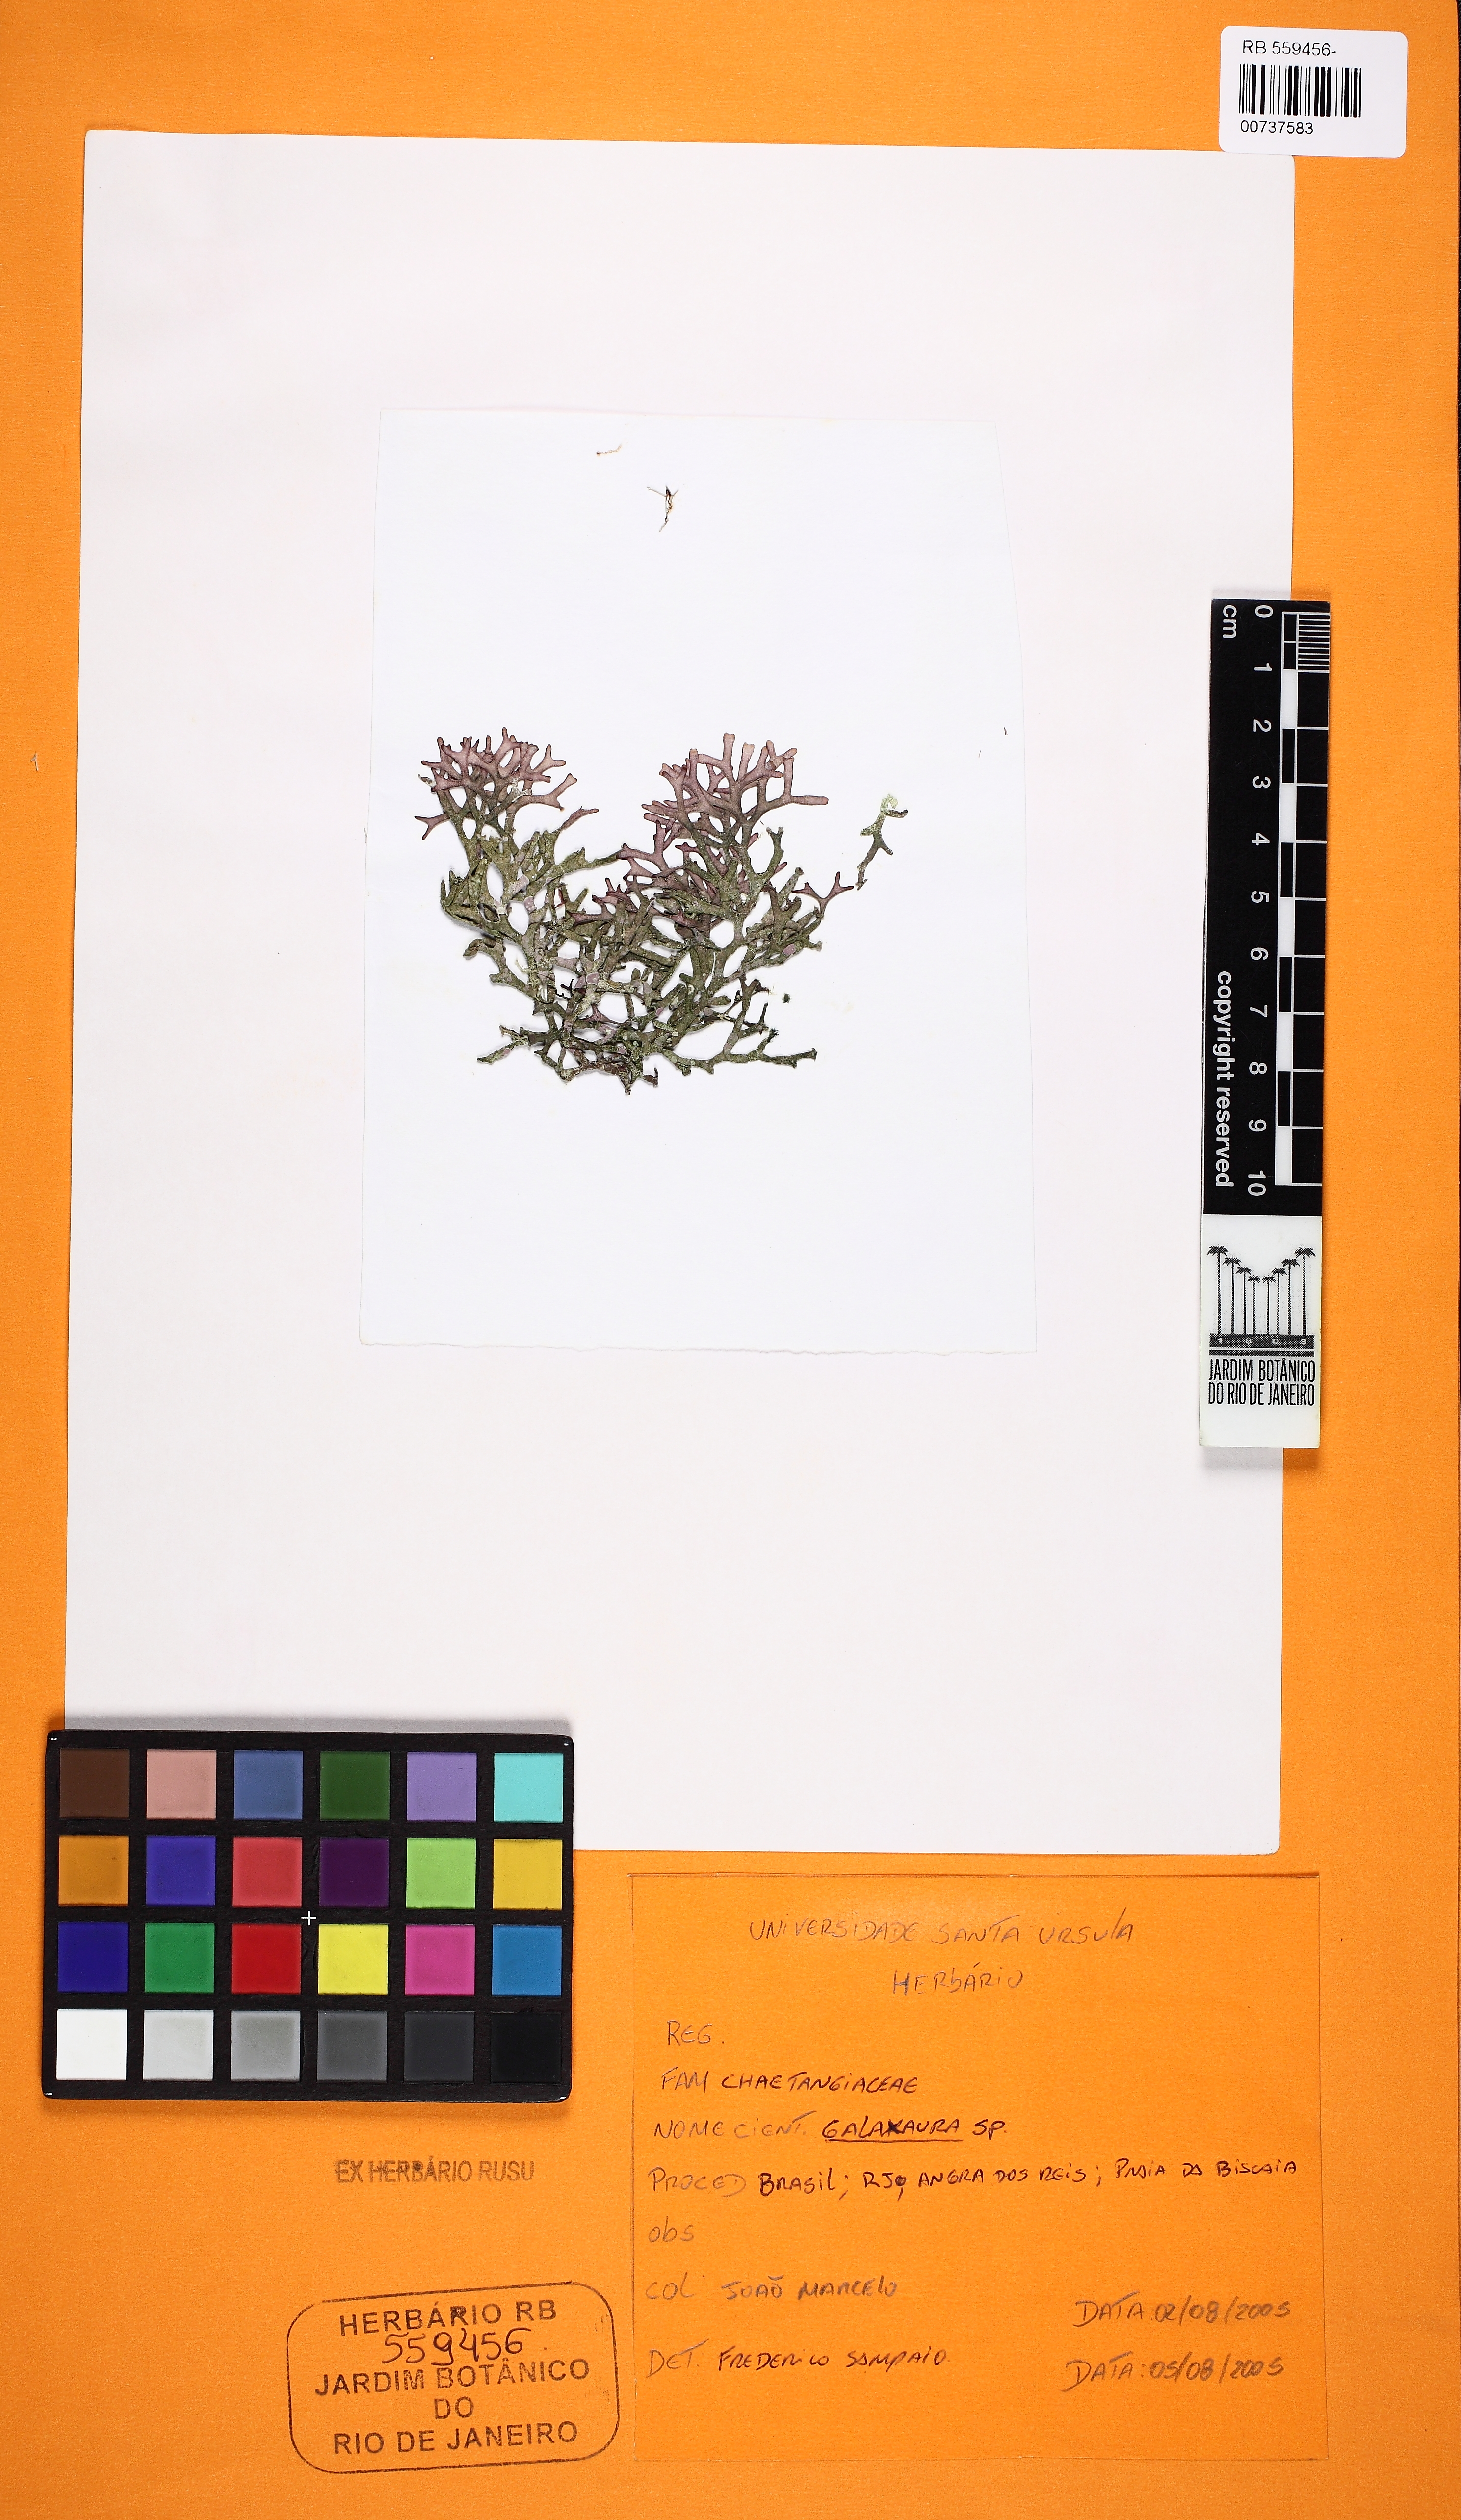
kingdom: Plantae
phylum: Rhodophyta
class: Florideophyceae
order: Nemaliales
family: Galaxauraceae
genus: Galaxaura
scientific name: Galaxaura
